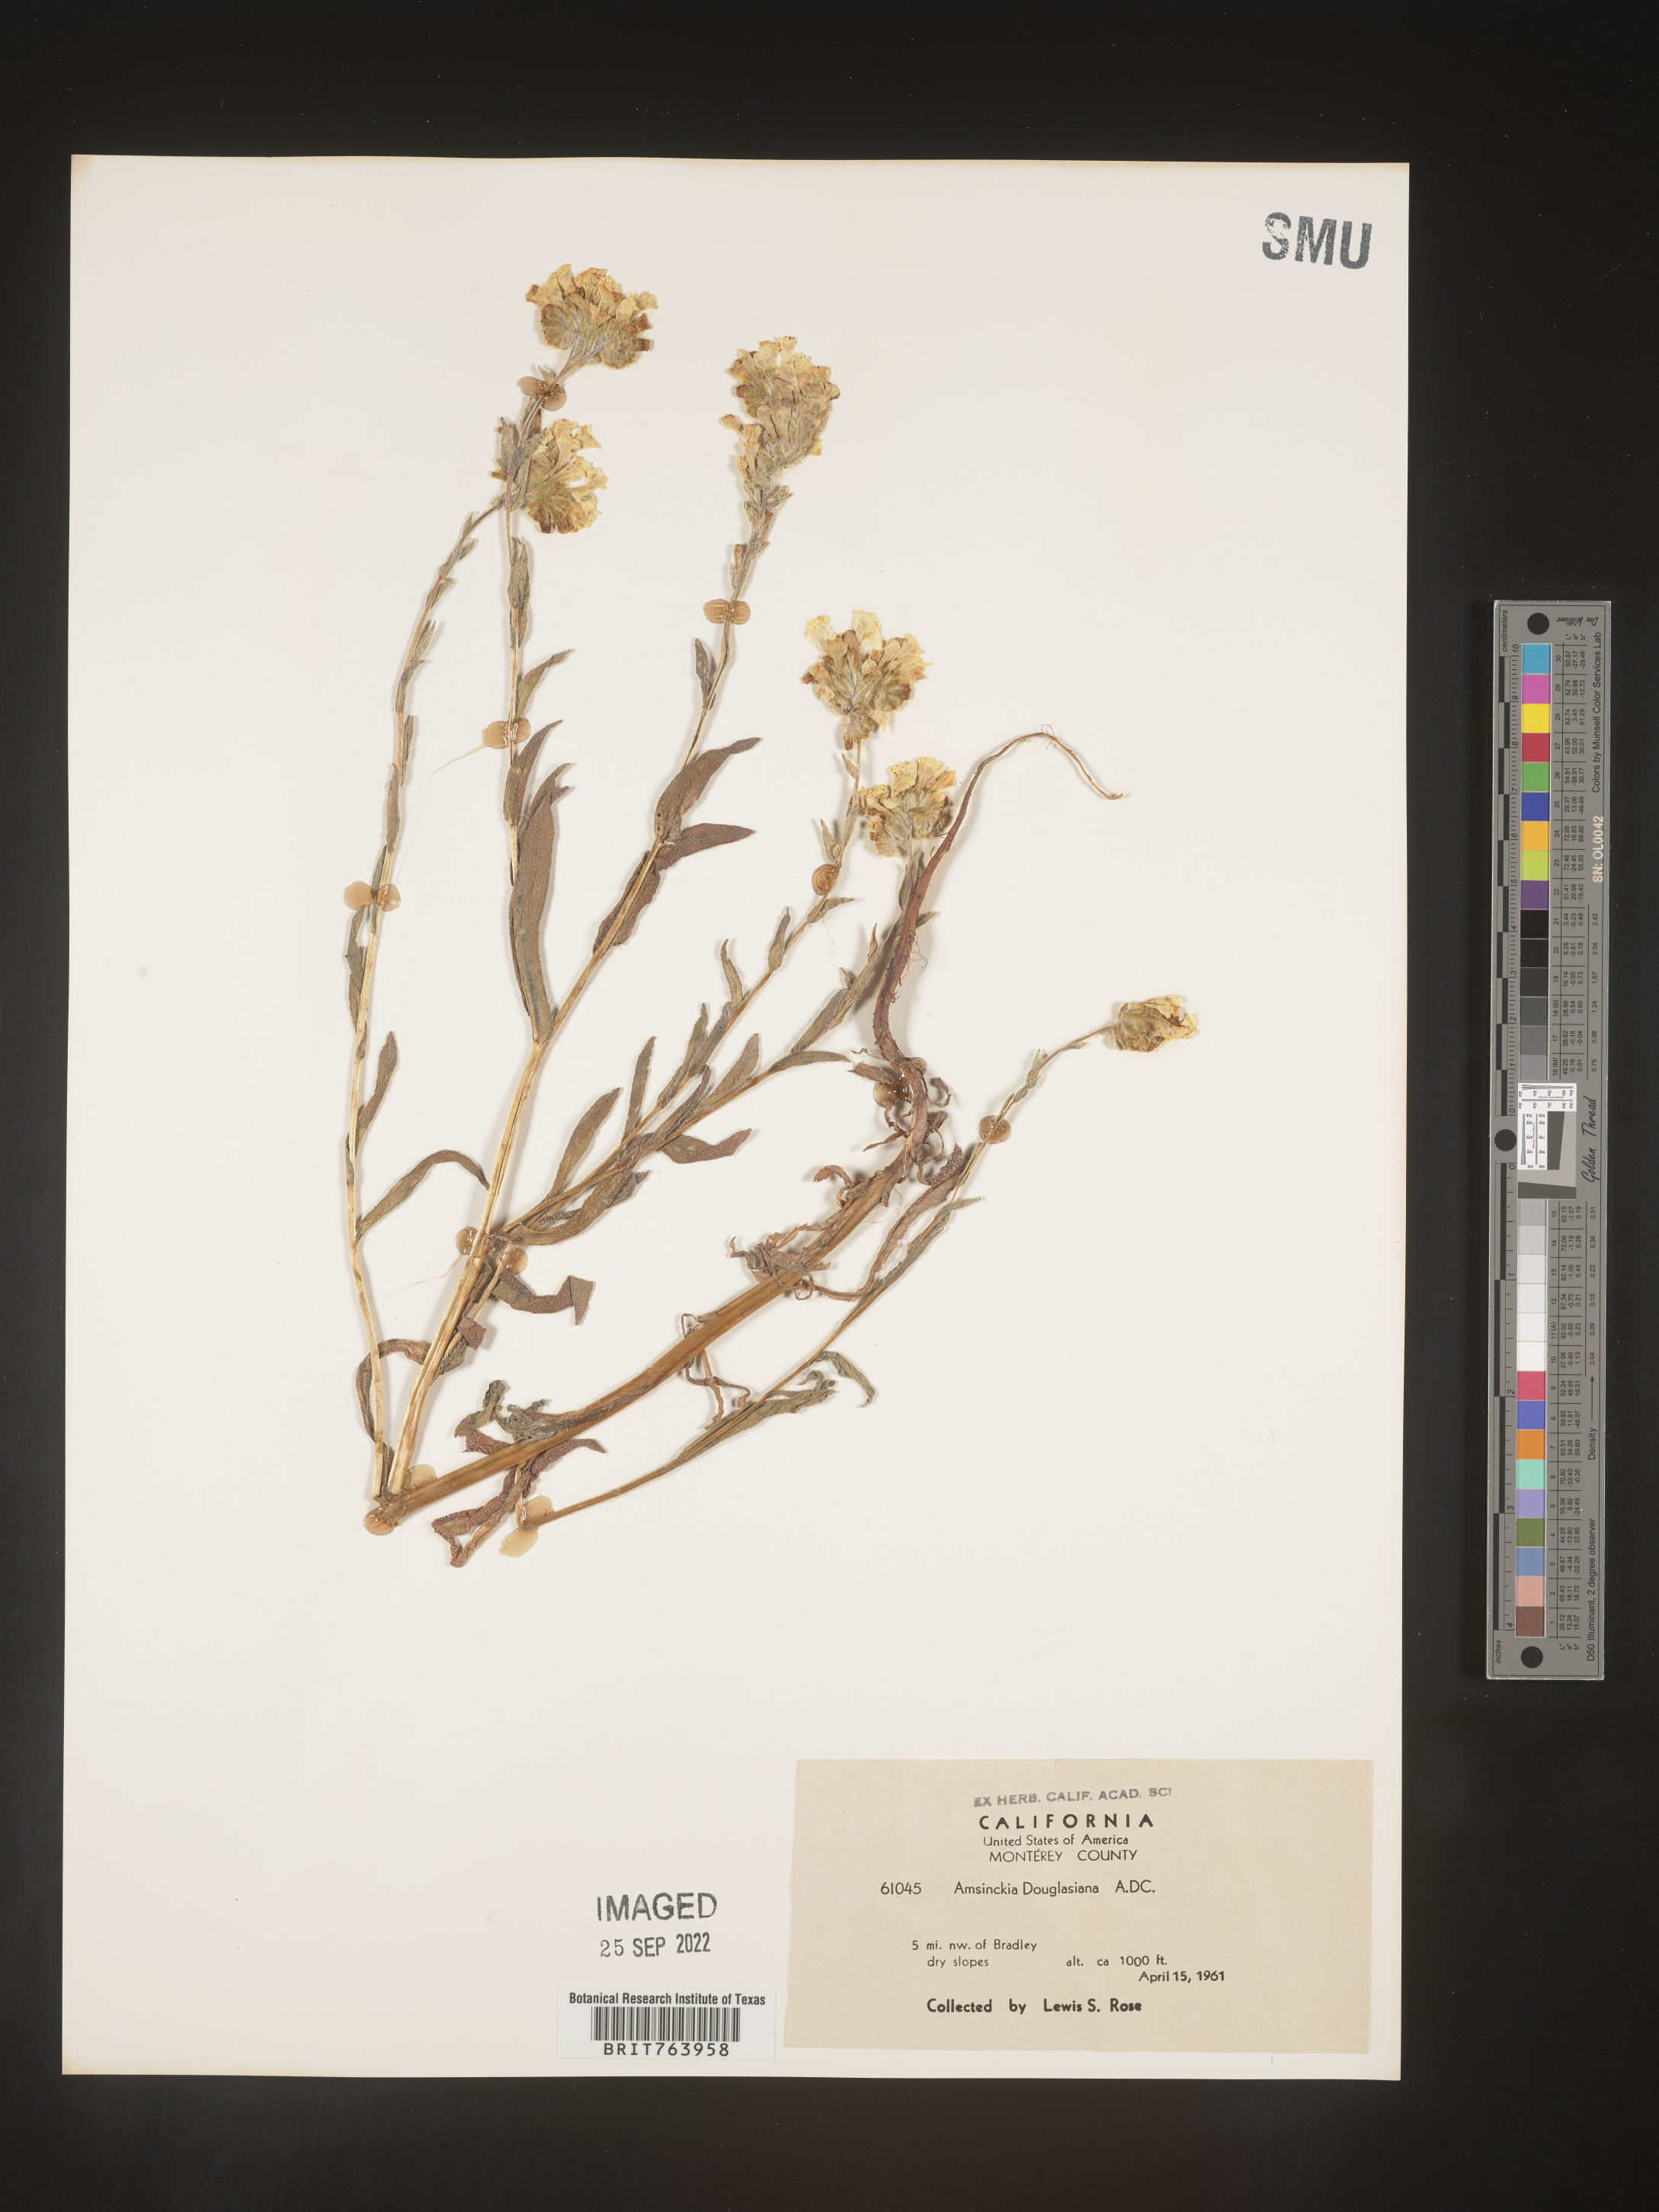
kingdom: Plantae
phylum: Tracheophyta
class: Magnoliopsida
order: Boraginales
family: Boraginaceae
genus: Amsinckia
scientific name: Amsinckia
